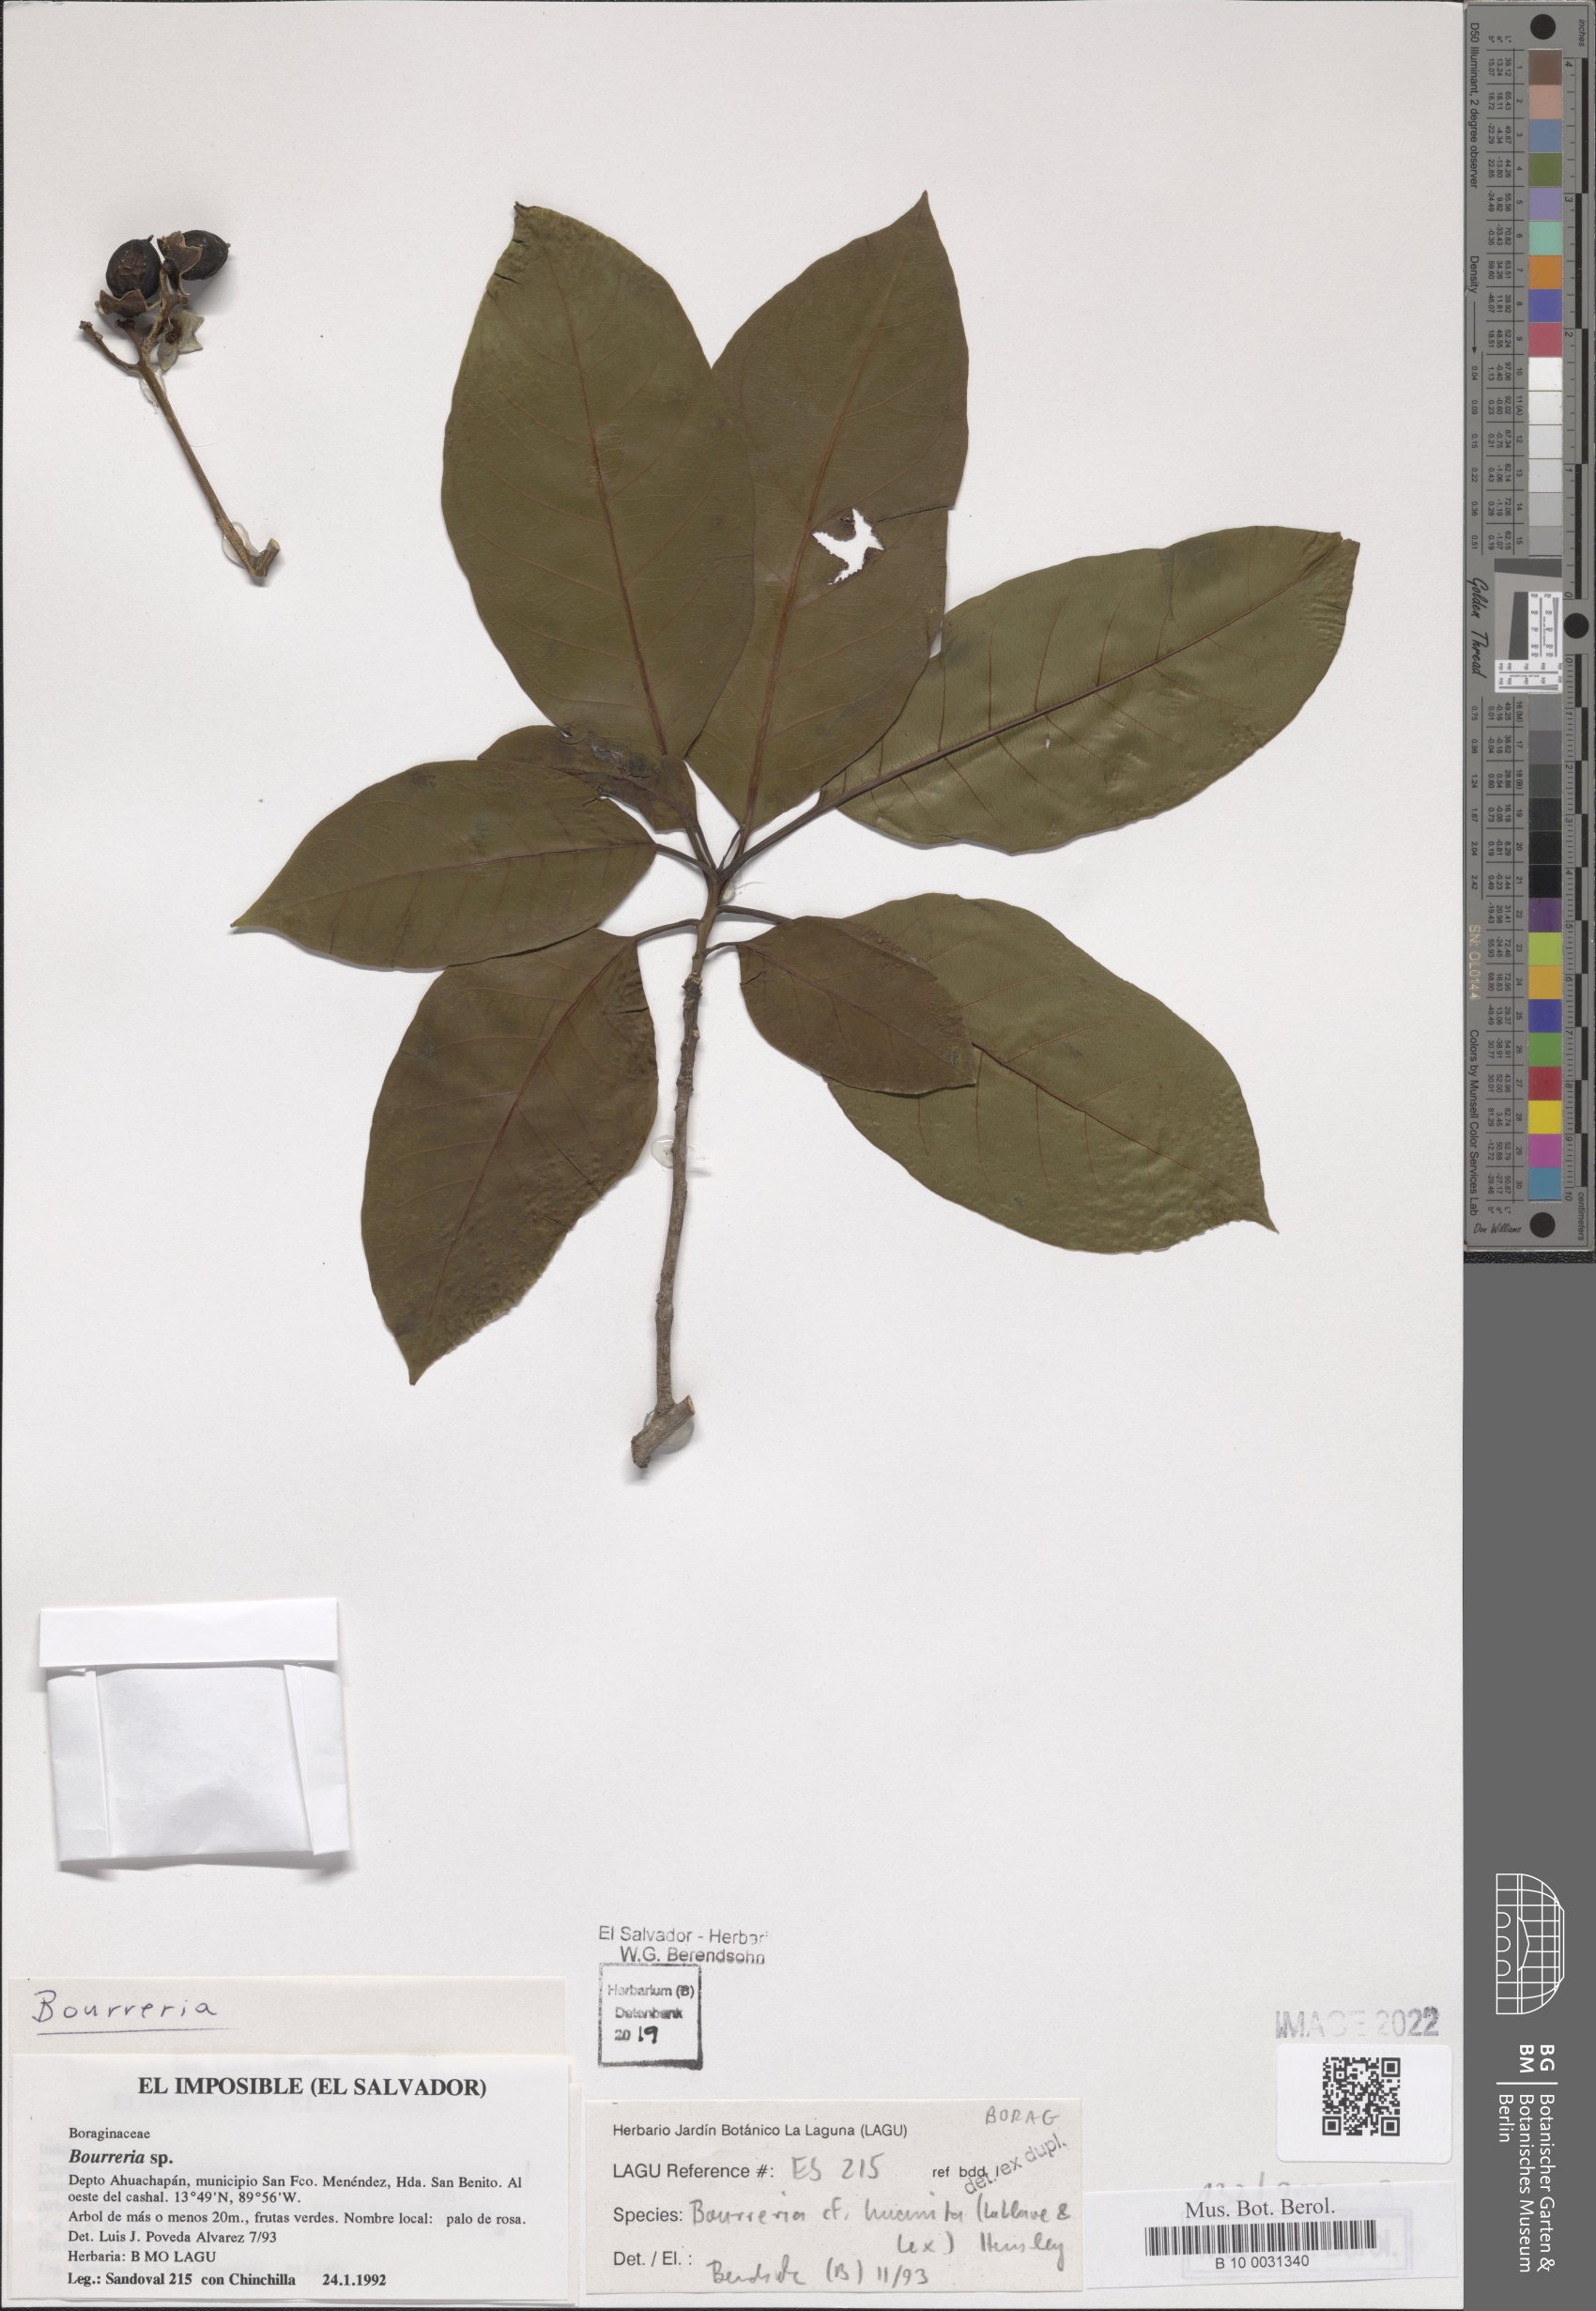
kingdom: Plantae
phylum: Tracheophyta
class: Magnoliopsida
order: Boraginales
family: Ehretiaceae
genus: Bourreria
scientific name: Bourreria huanita
